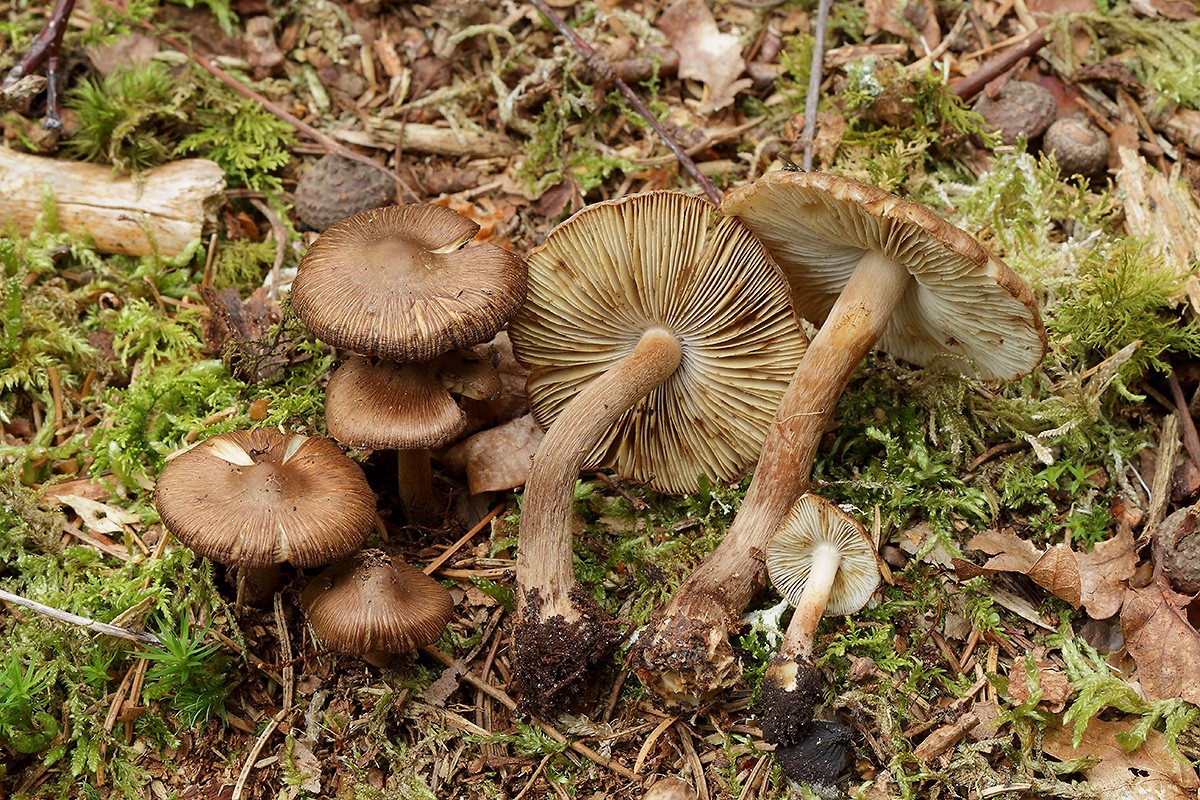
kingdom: Fungi
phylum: Basidiomycota
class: Agaricomycetes
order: Agaricales
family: Inocybaceae
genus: Inocybe
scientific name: Inocybe napipes
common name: roeknoldet trævlhat
